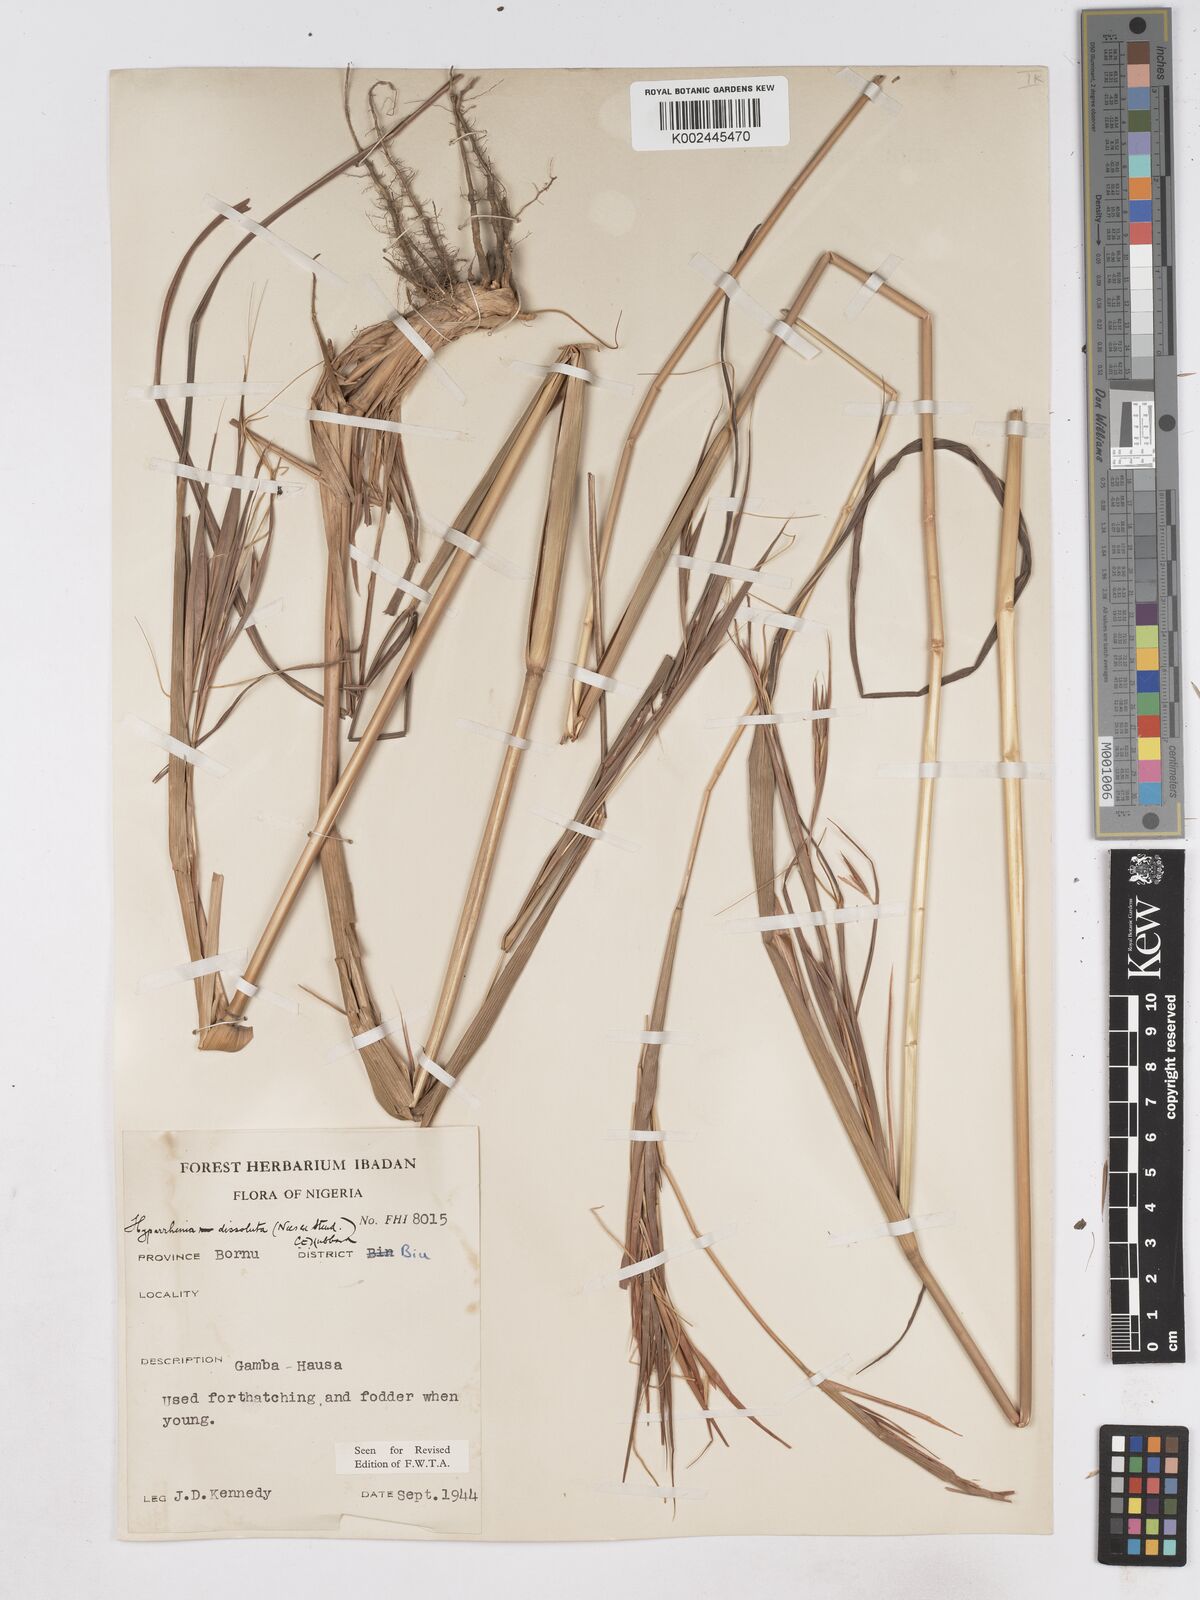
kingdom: Plantae
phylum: Tracheophyta
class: Liliopsida
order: Poales
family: Poaceae
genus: Hyperthelia
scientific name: Hyperthelia dissoluta
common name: Yellow thatching grass
